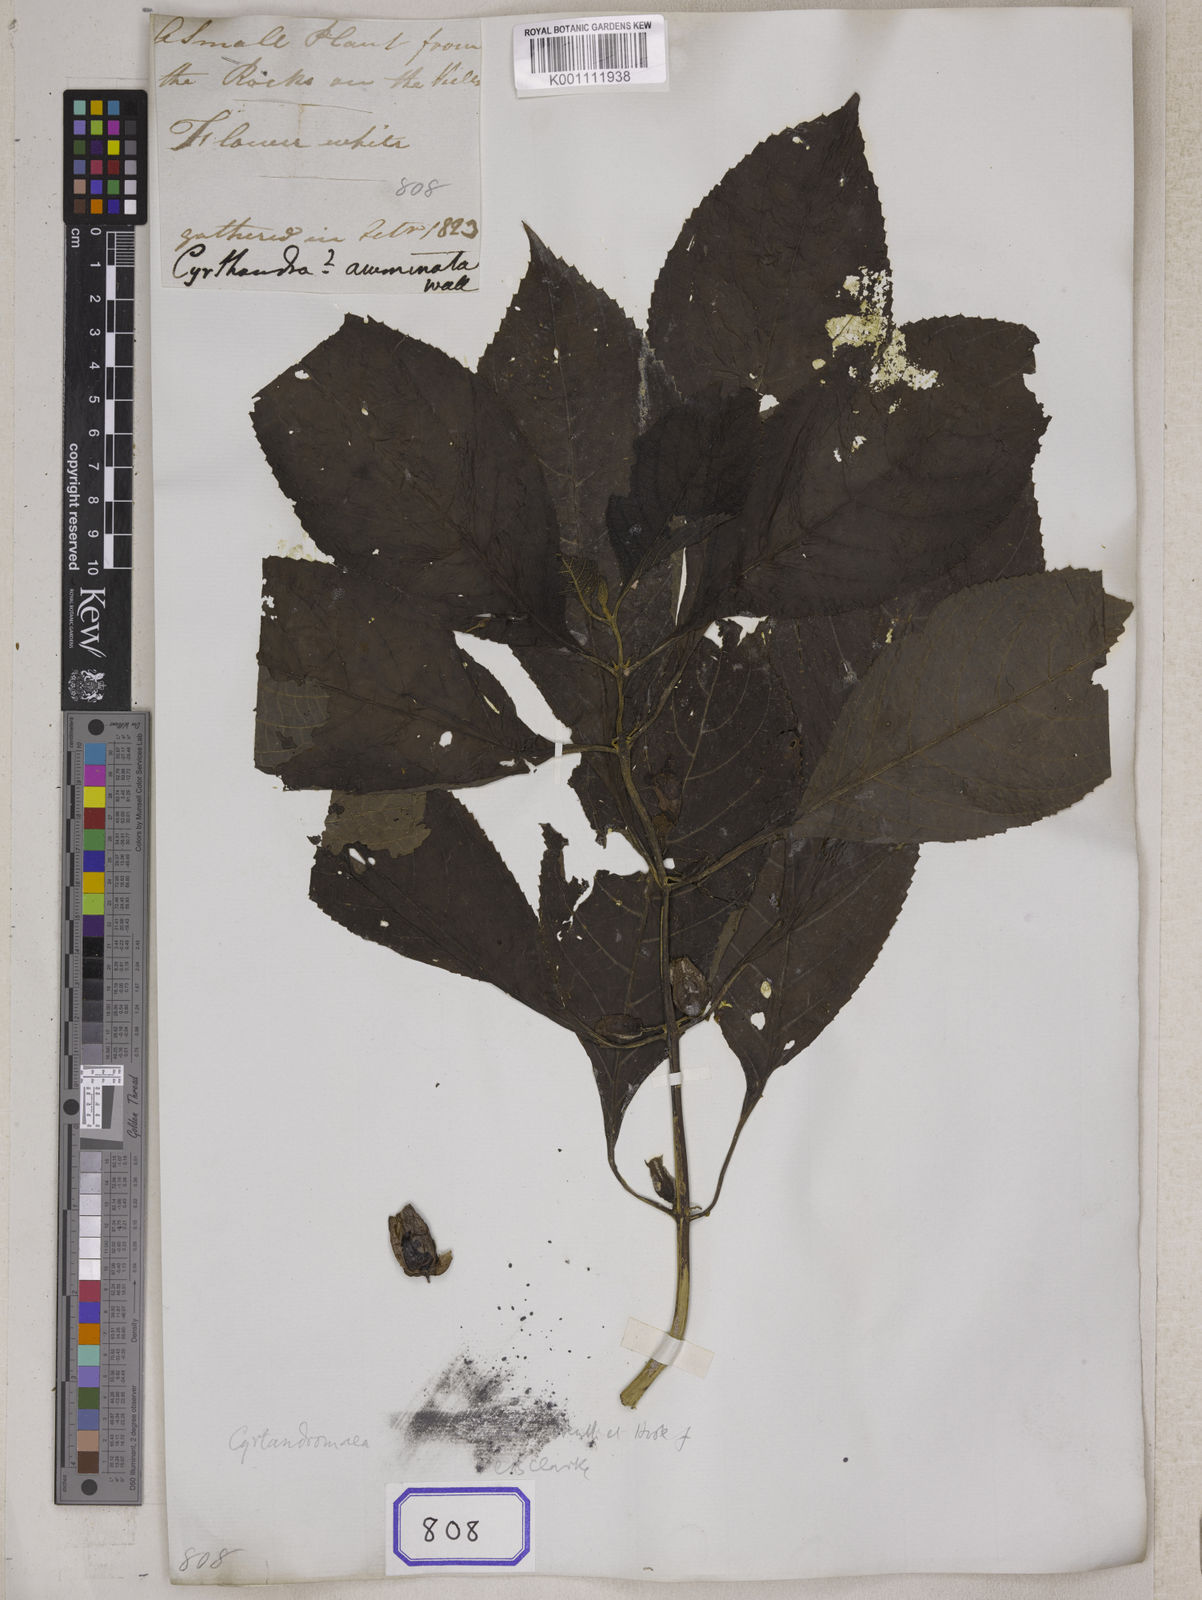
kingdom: Plantae
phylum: Tracheophyta
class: Magnoliopsida
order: Lamiales
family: Gesneriaceae
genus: Cyrtandra
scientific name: Cyrtandra
